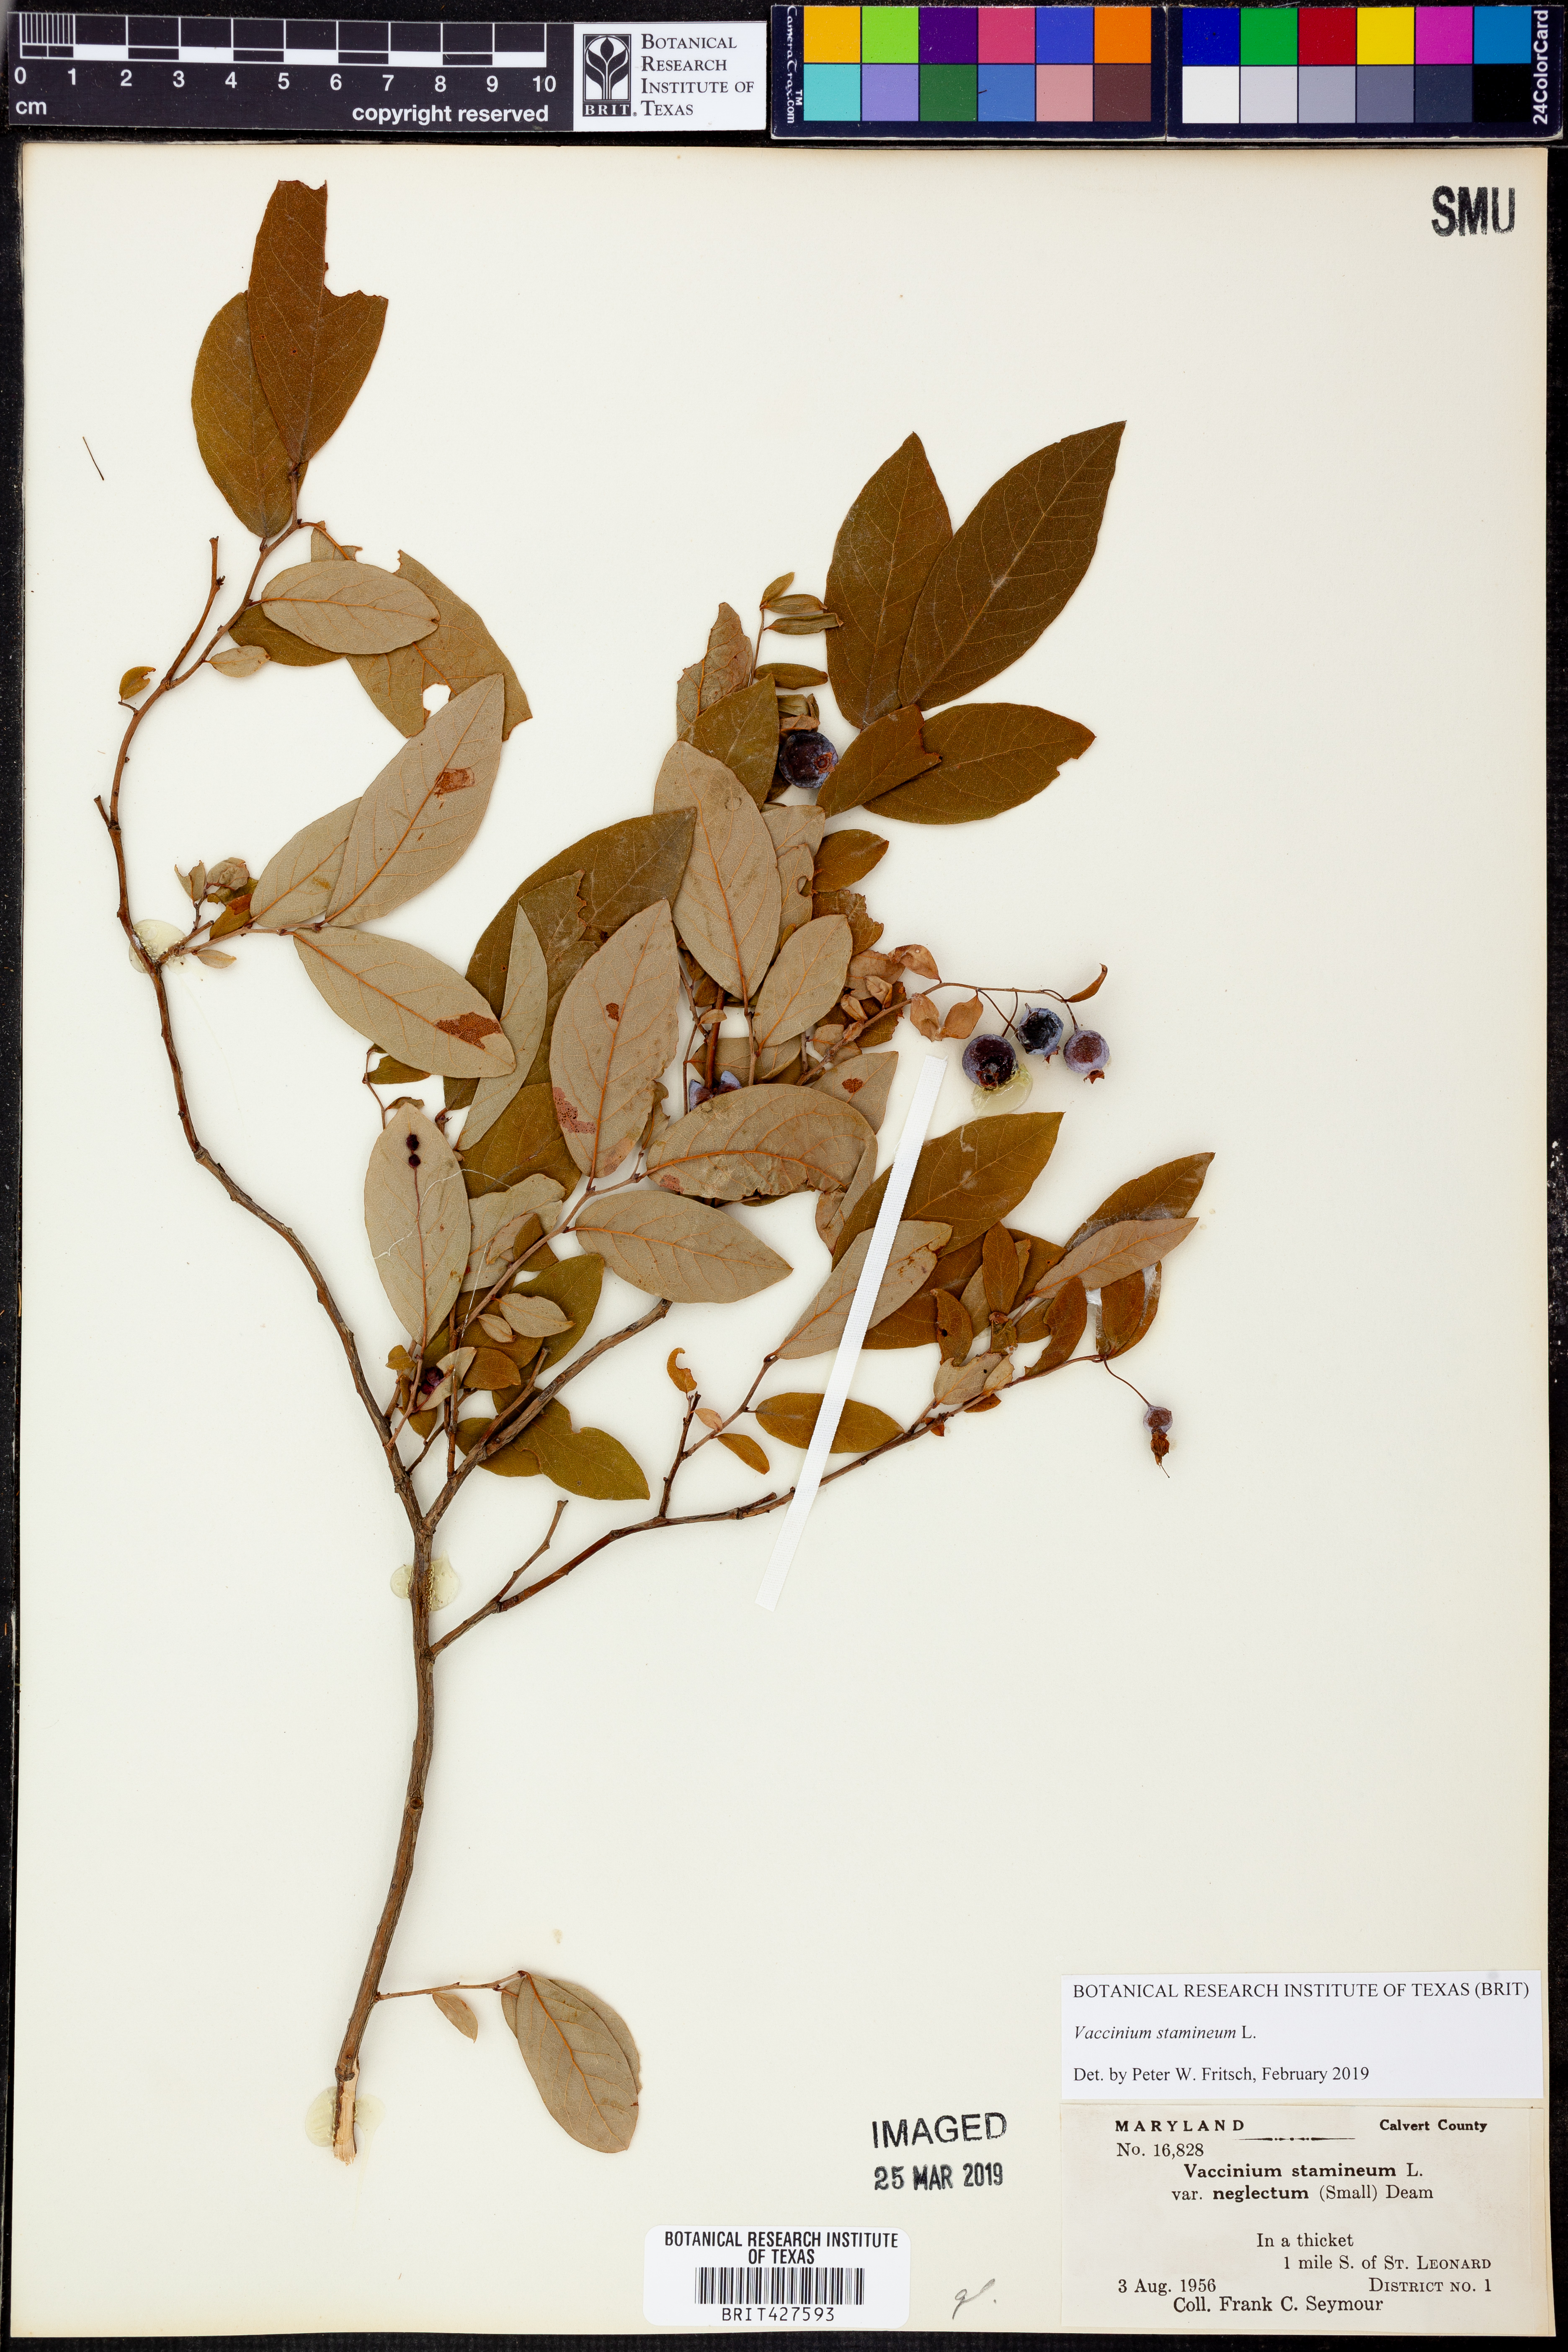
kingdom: Plantae
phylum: Tracheophyta
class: Magnoliopsida
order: Ericales
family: Ericaceae
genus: Vaccinium
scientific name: Vaccinium stamineum
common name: Deerberry
